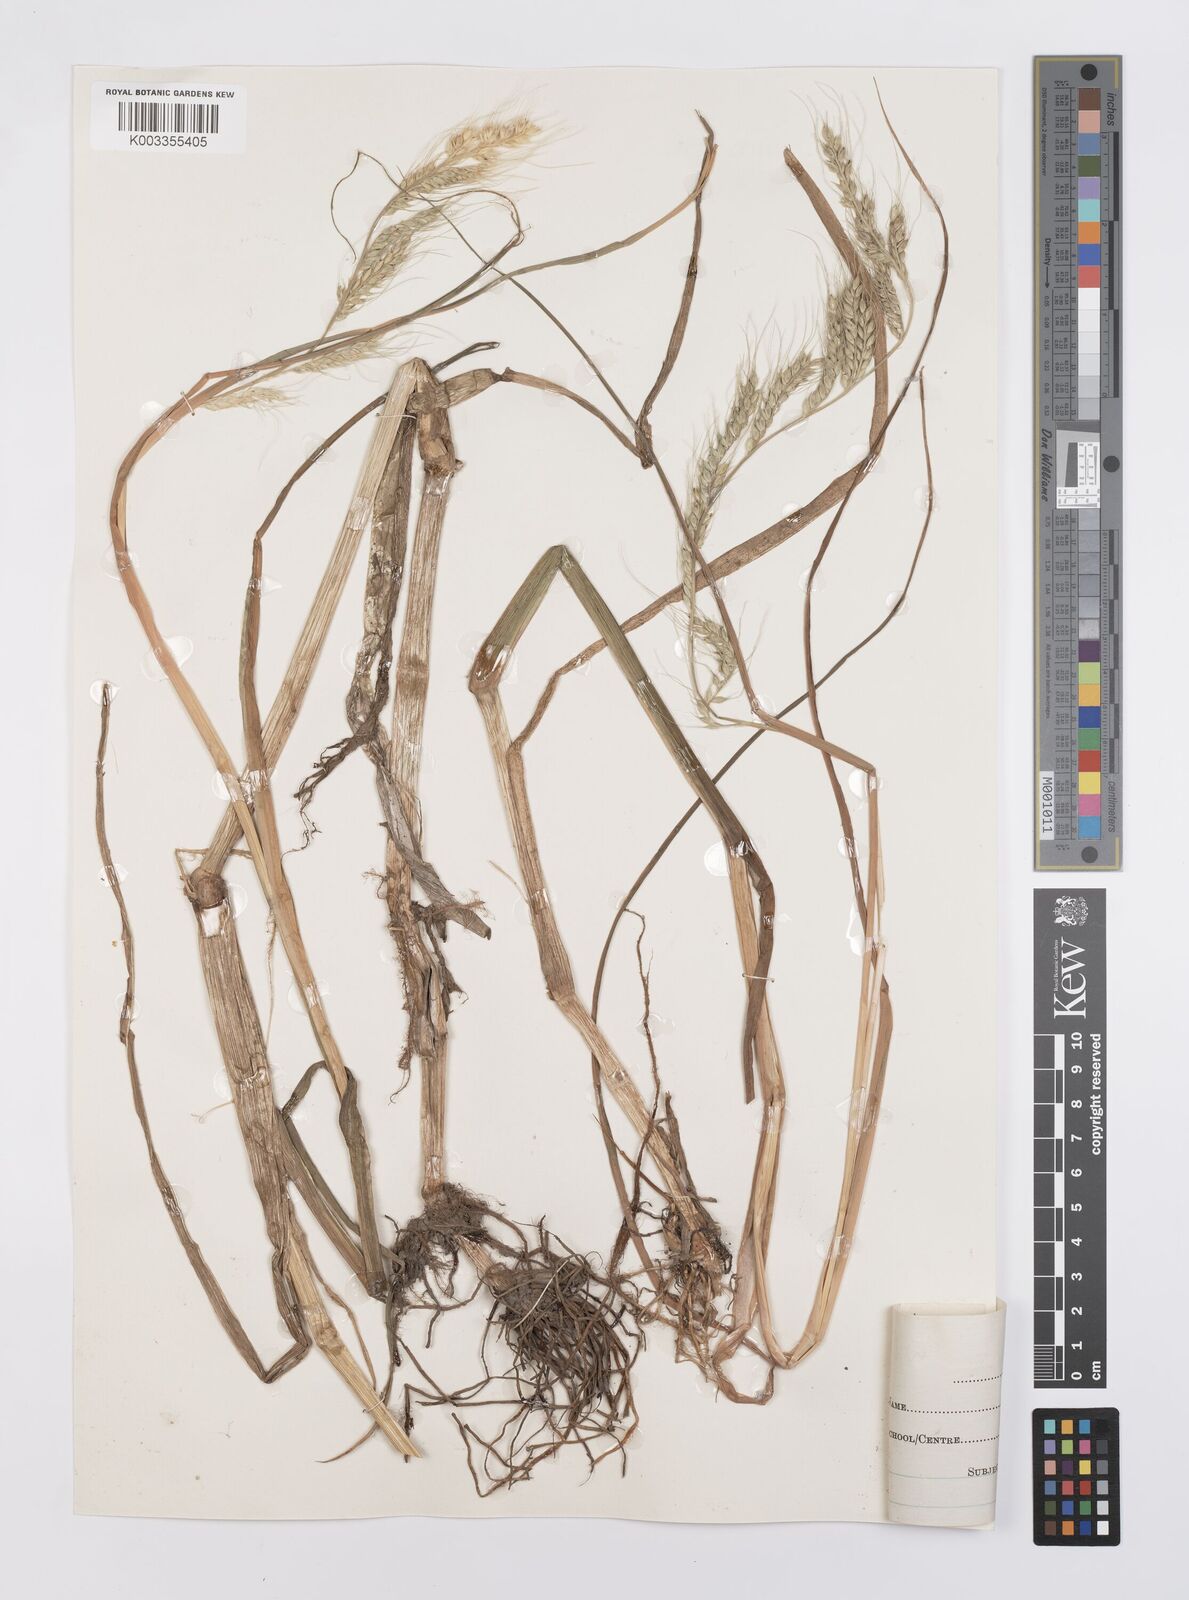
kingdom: Plantae
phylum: Tracheophyta
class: Liliopsida
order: Poales
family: Poaceae
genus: Echinochloa
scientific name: Echinochloa stagnina
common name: Burgu grass
